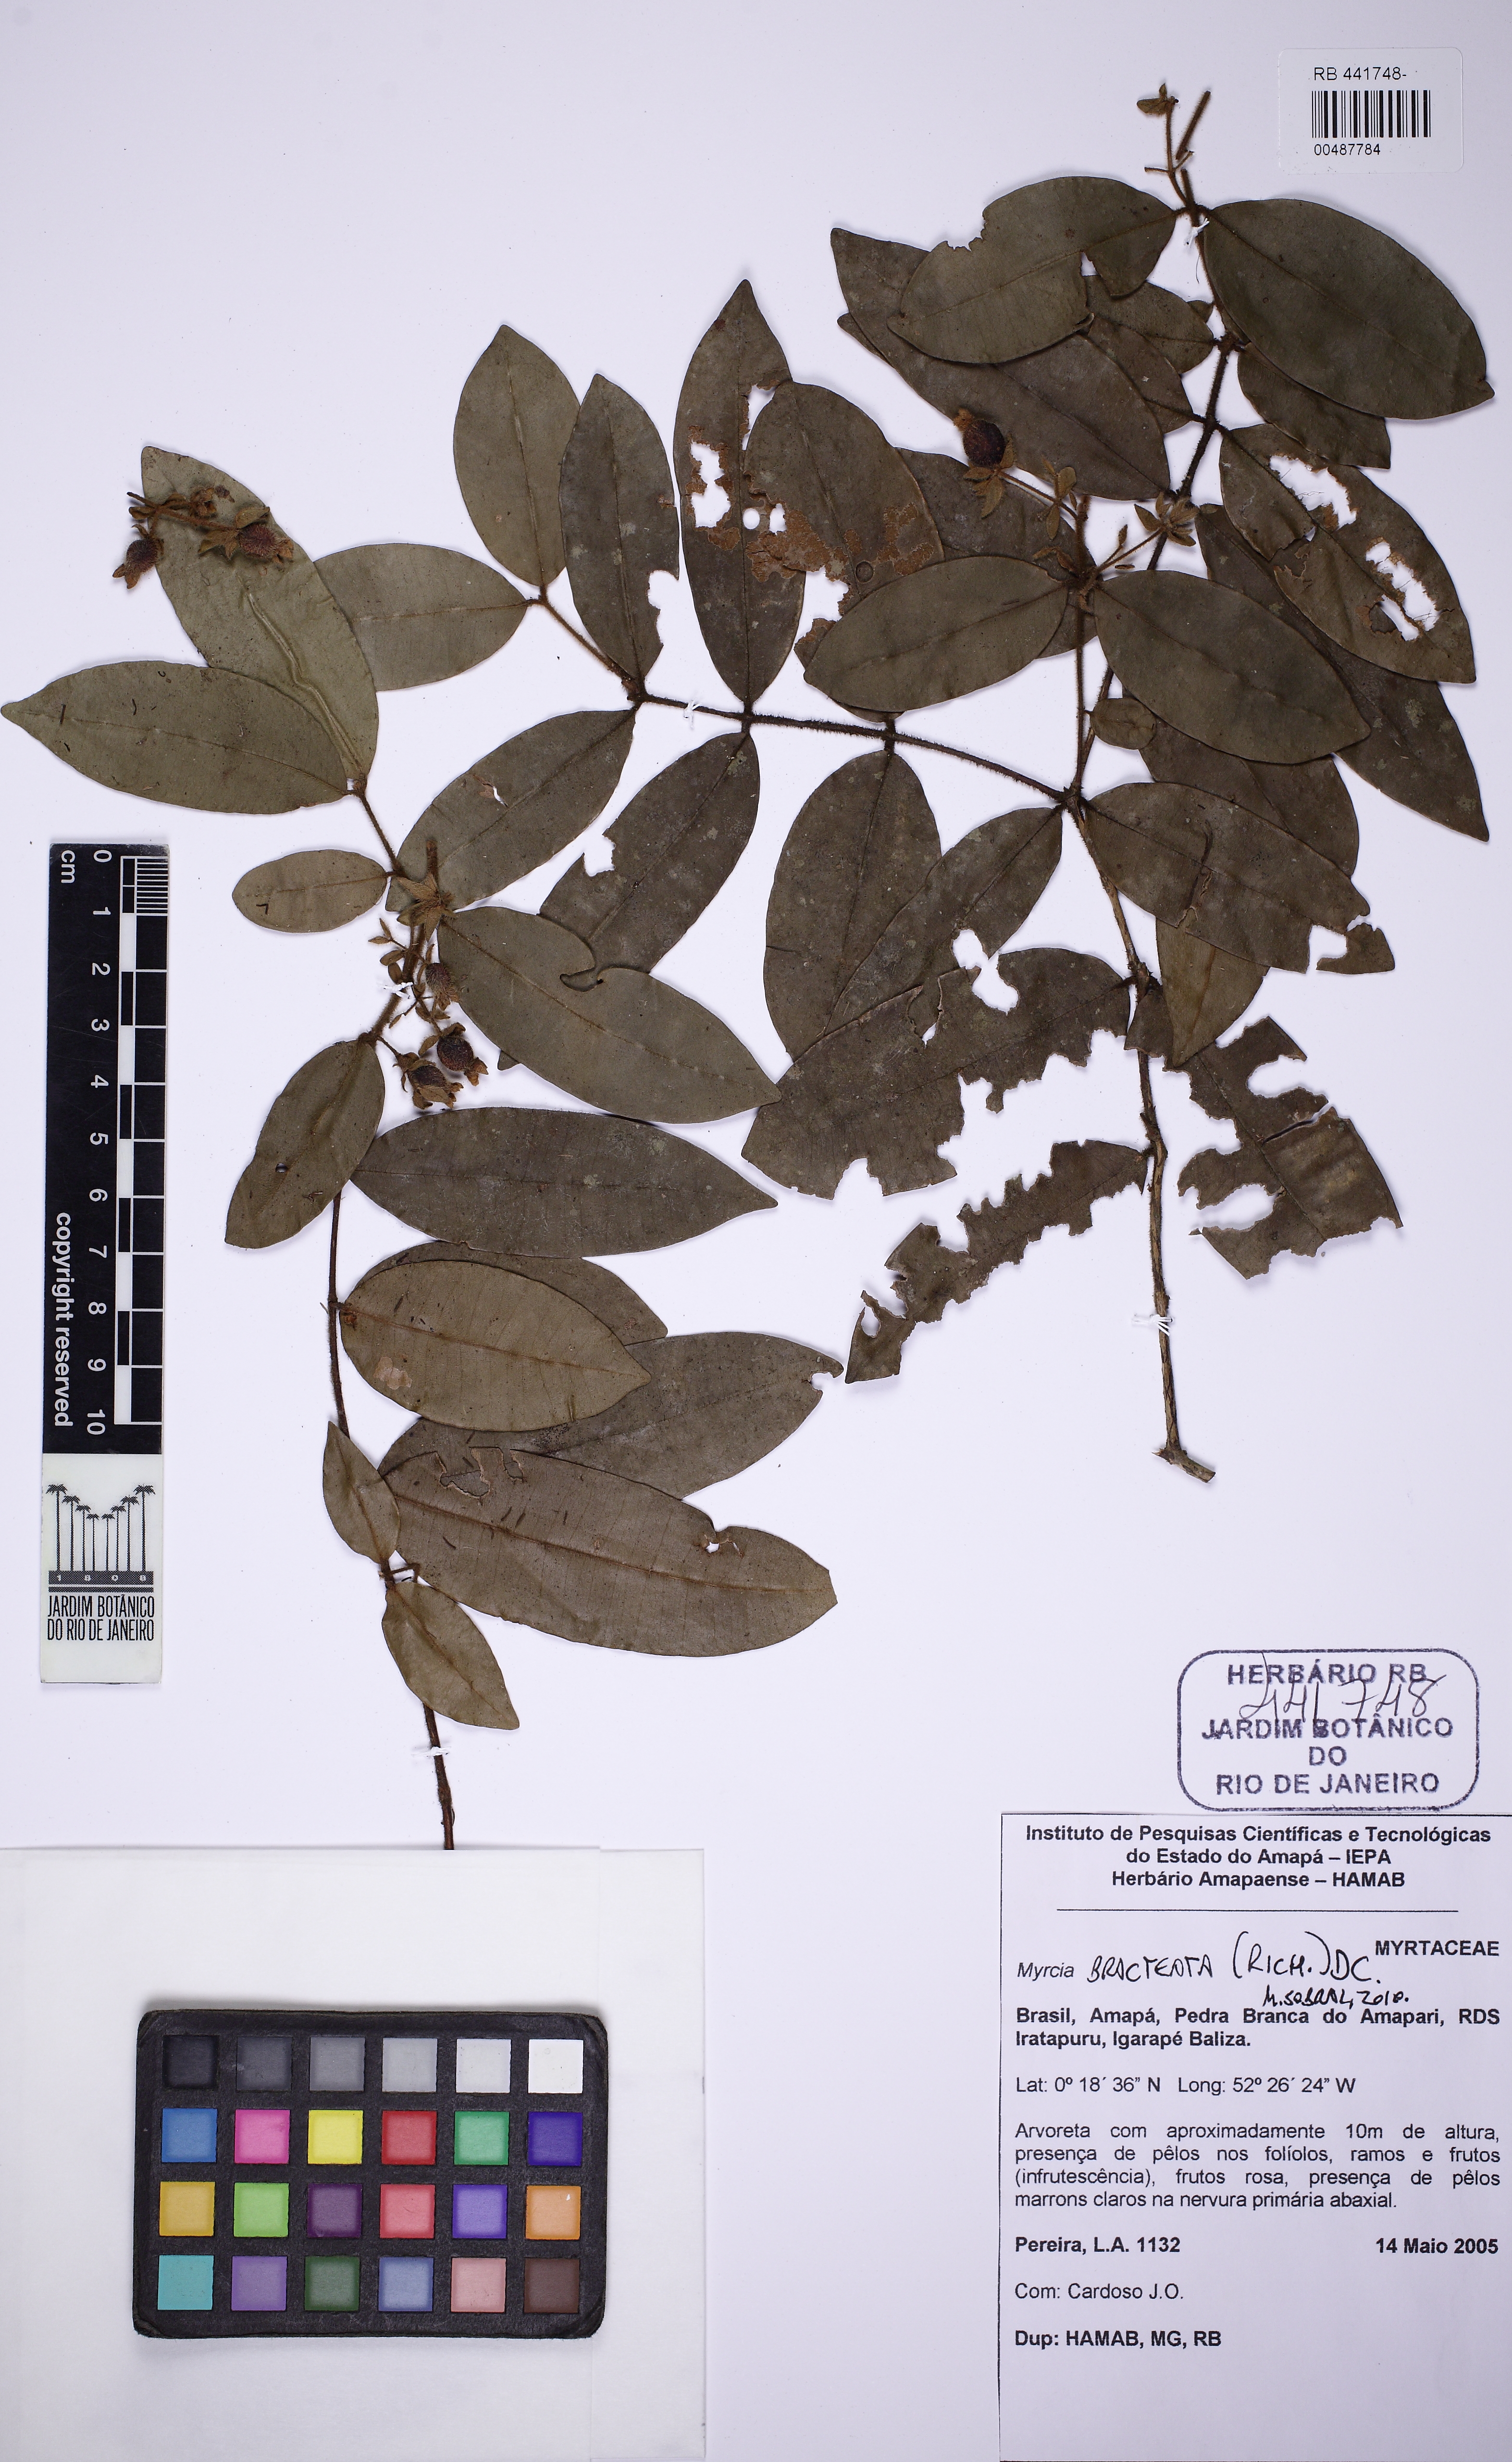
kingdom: Plantae
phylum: Tracheophyta
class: Magnoliopsida
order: Myrtales
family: Myrtaceae
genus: Myrcia
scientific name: Myrcia bracteata
